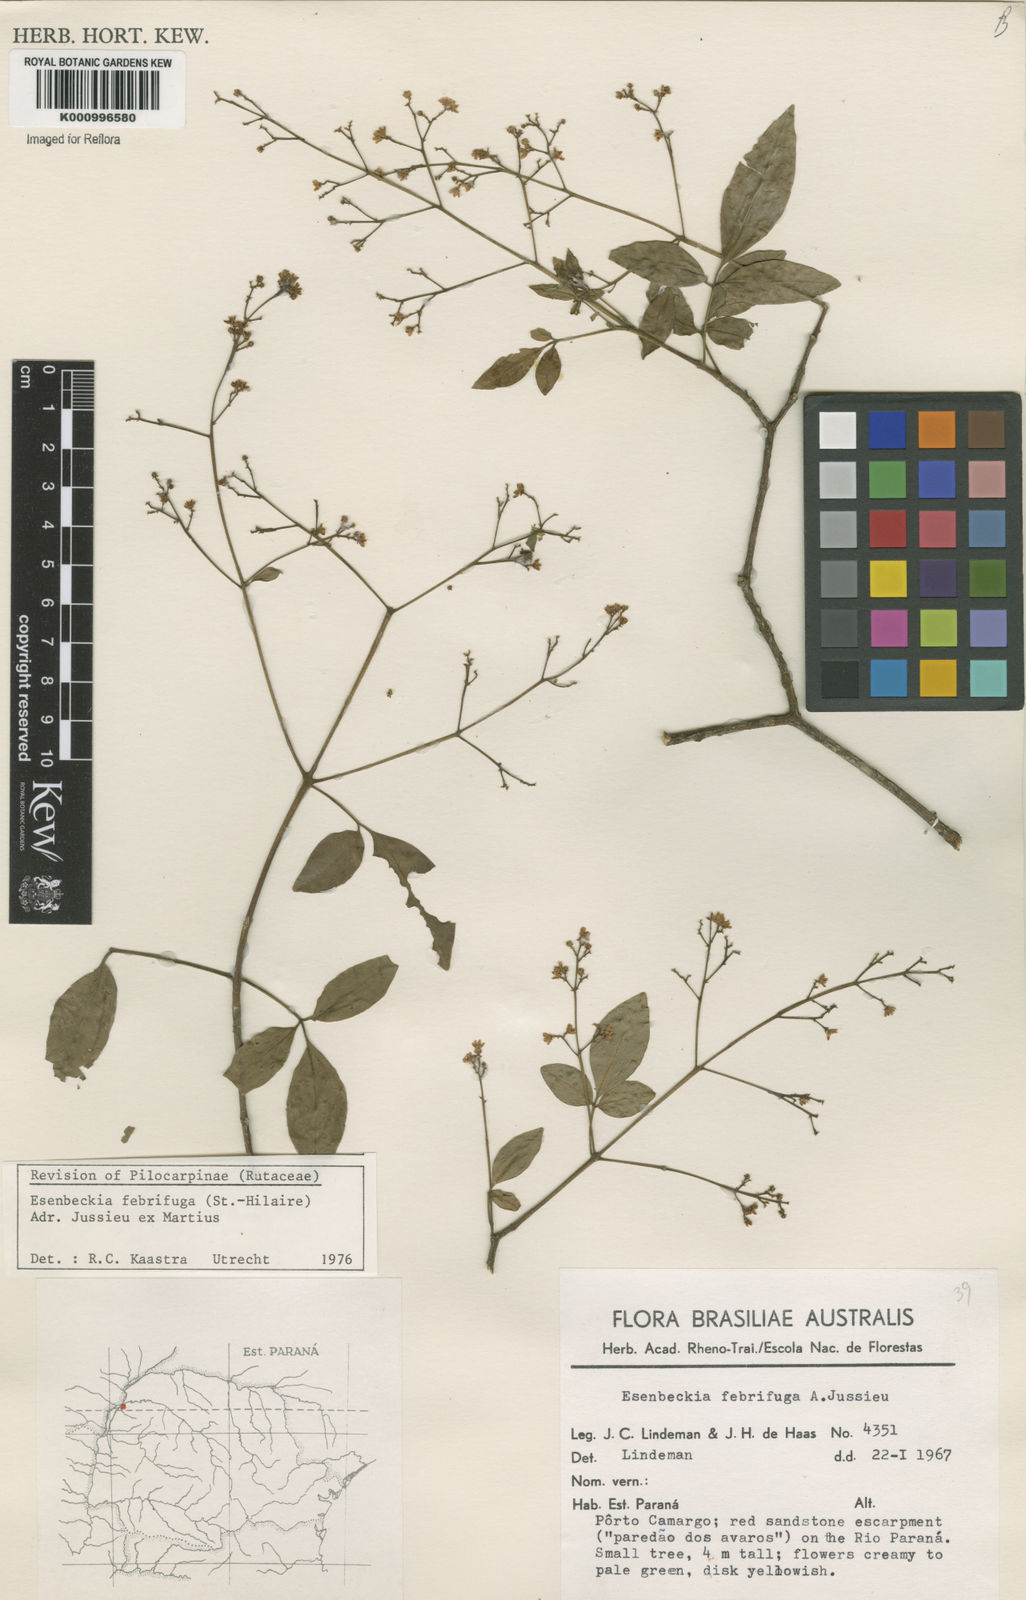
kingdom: Plantae
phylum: Tracheophyta
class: Magnoliopsida
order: Sapindales
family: Rutaceae
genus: Esenbeckia
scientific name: Esenbeckia febrifuga
